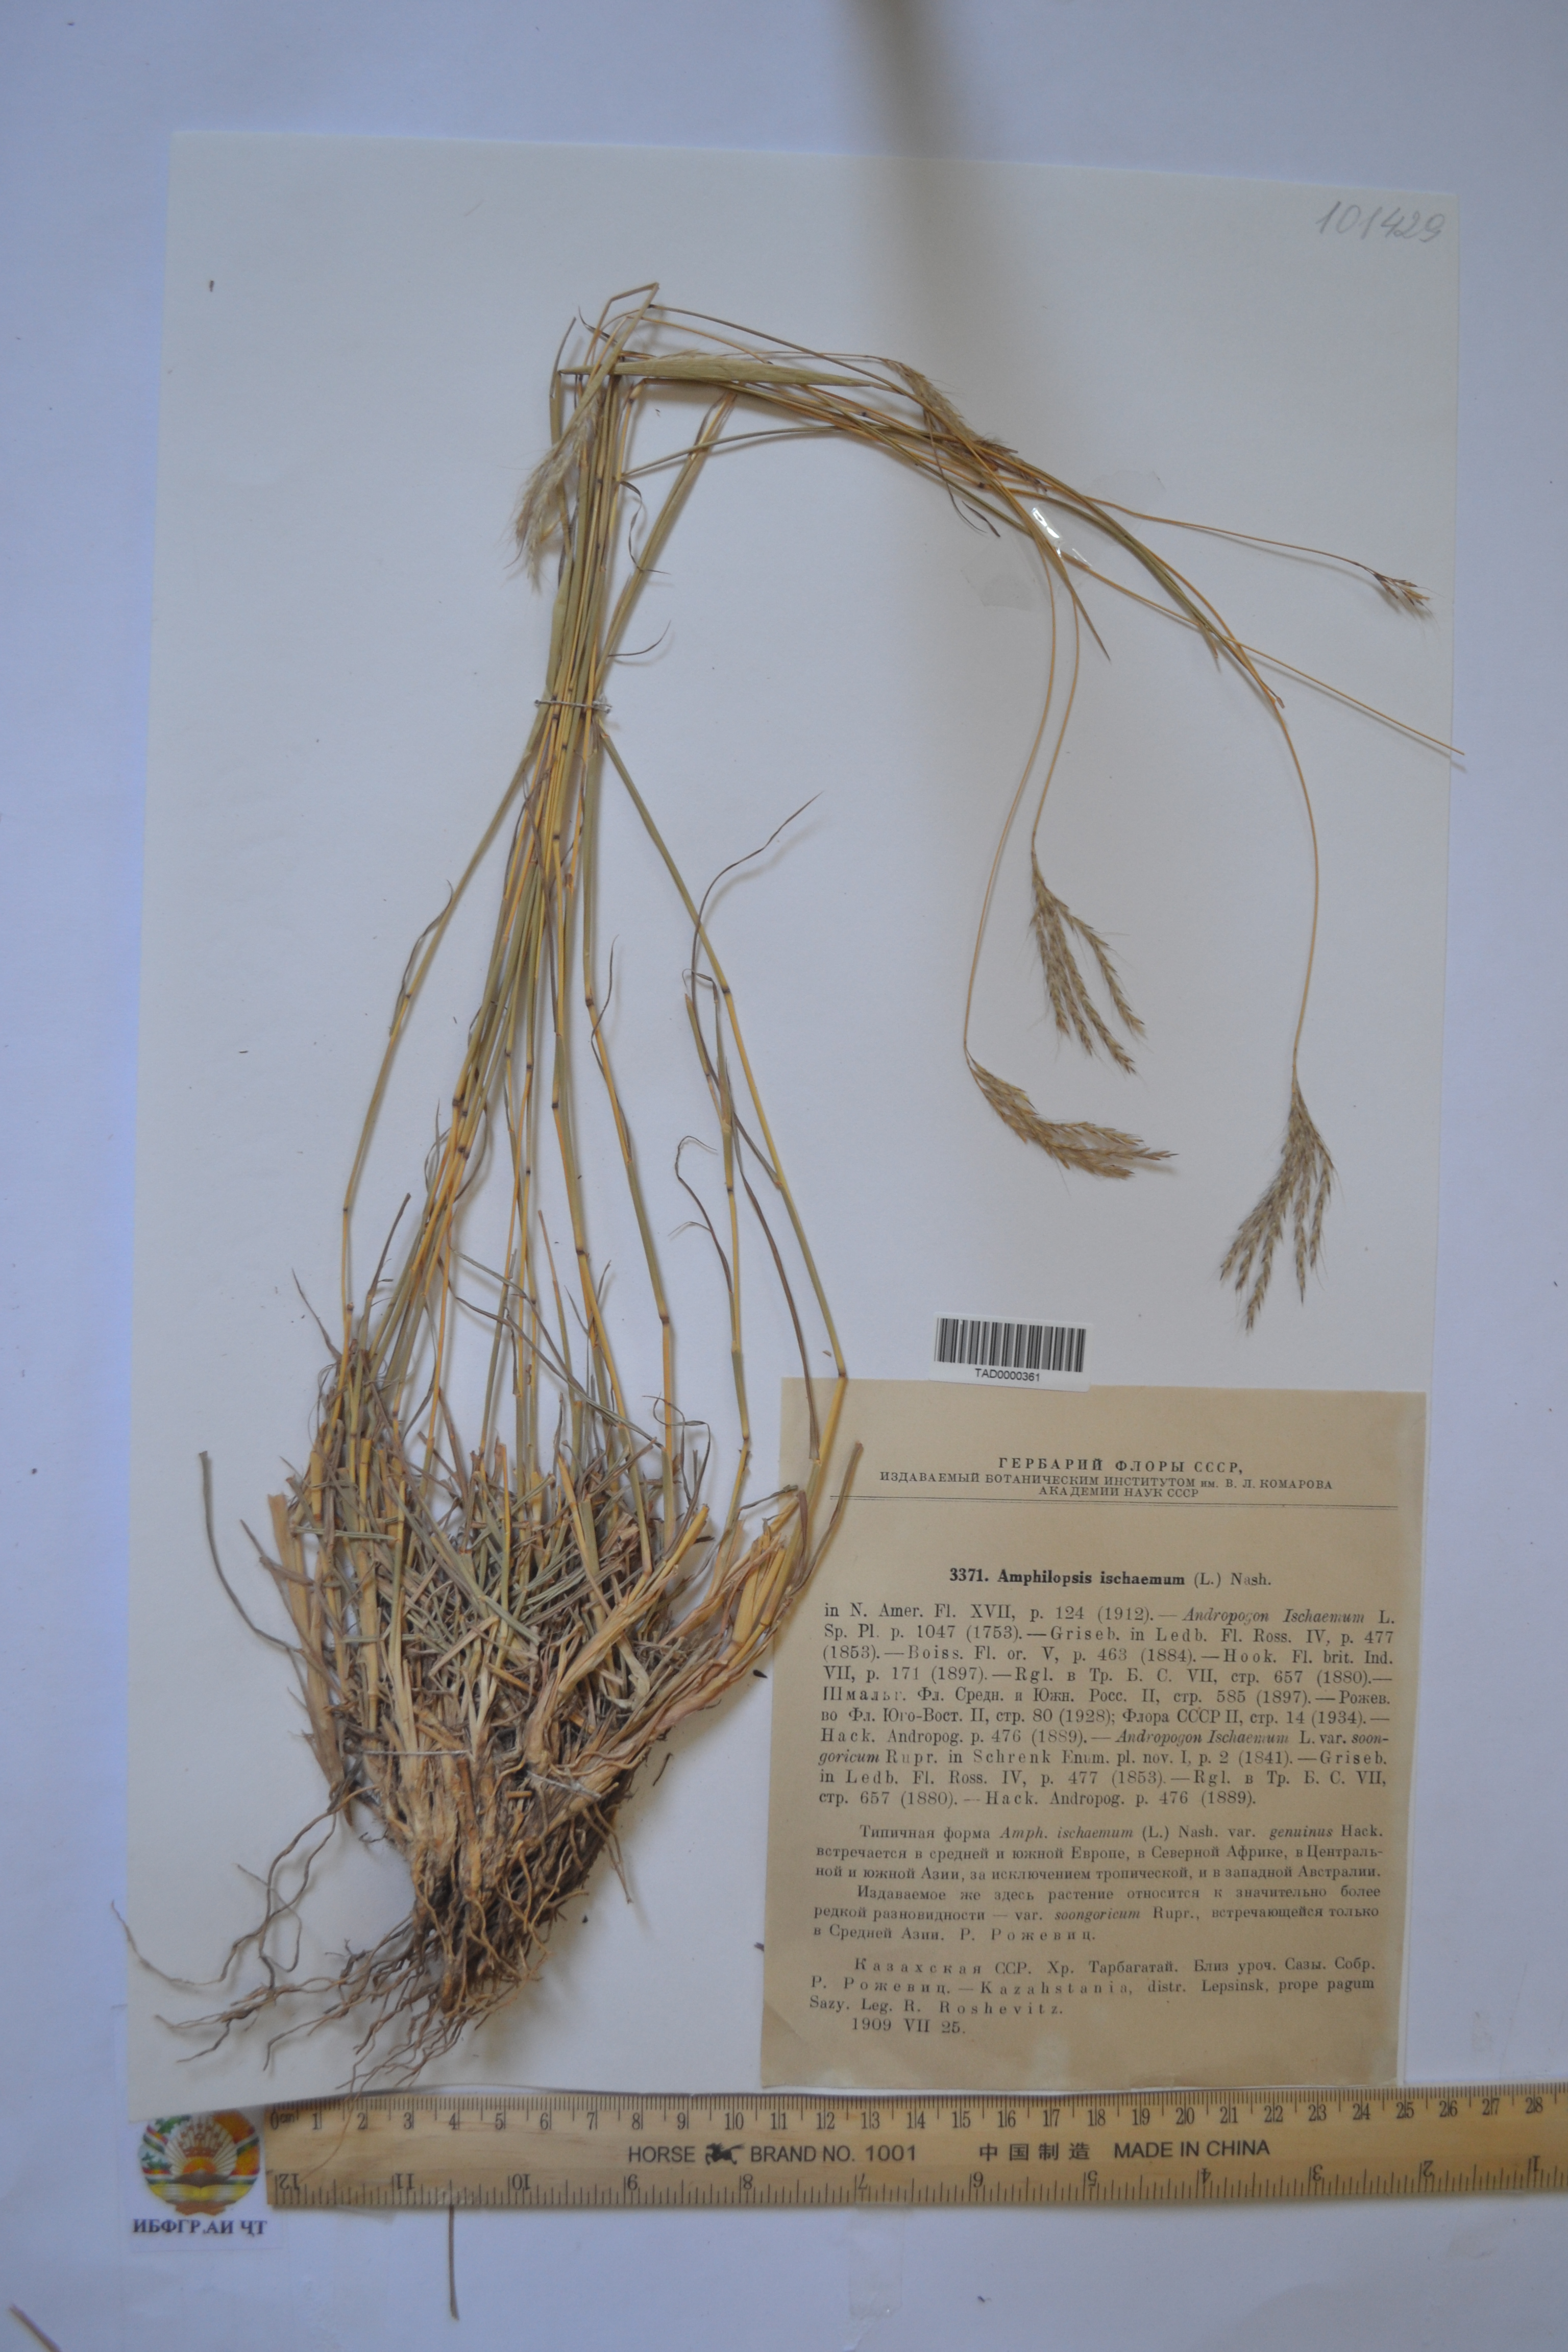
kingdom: Plantae
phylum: Tracheophyta
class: Liliopsida
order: Poales
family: Poaceae
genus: Bothriochloa
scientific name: Bothriochloa ischaemum
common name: Yellow bluestem
